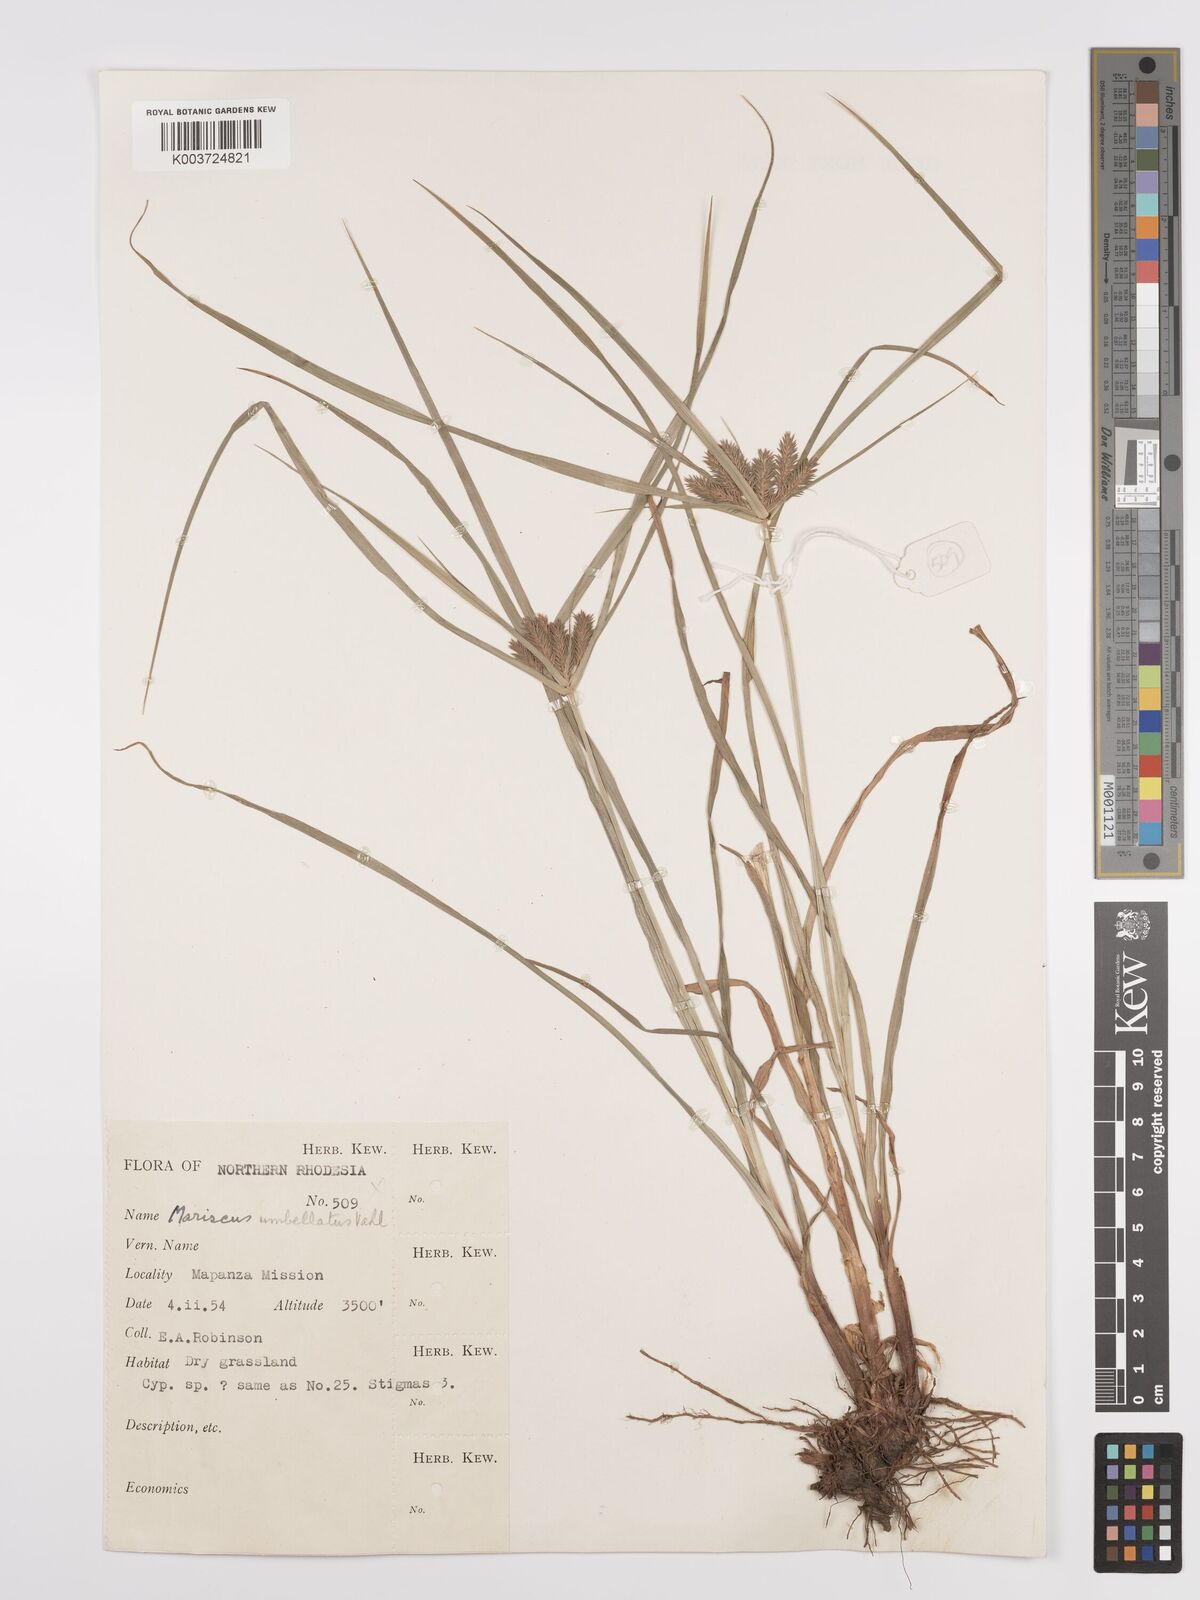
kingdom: Plantae
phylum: Tracheophyta
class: Liliopsida
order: Poales
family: Cyperaceae
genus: Cyperus
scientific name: Cyperus cyperoides
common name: Pacific island flat sedge
